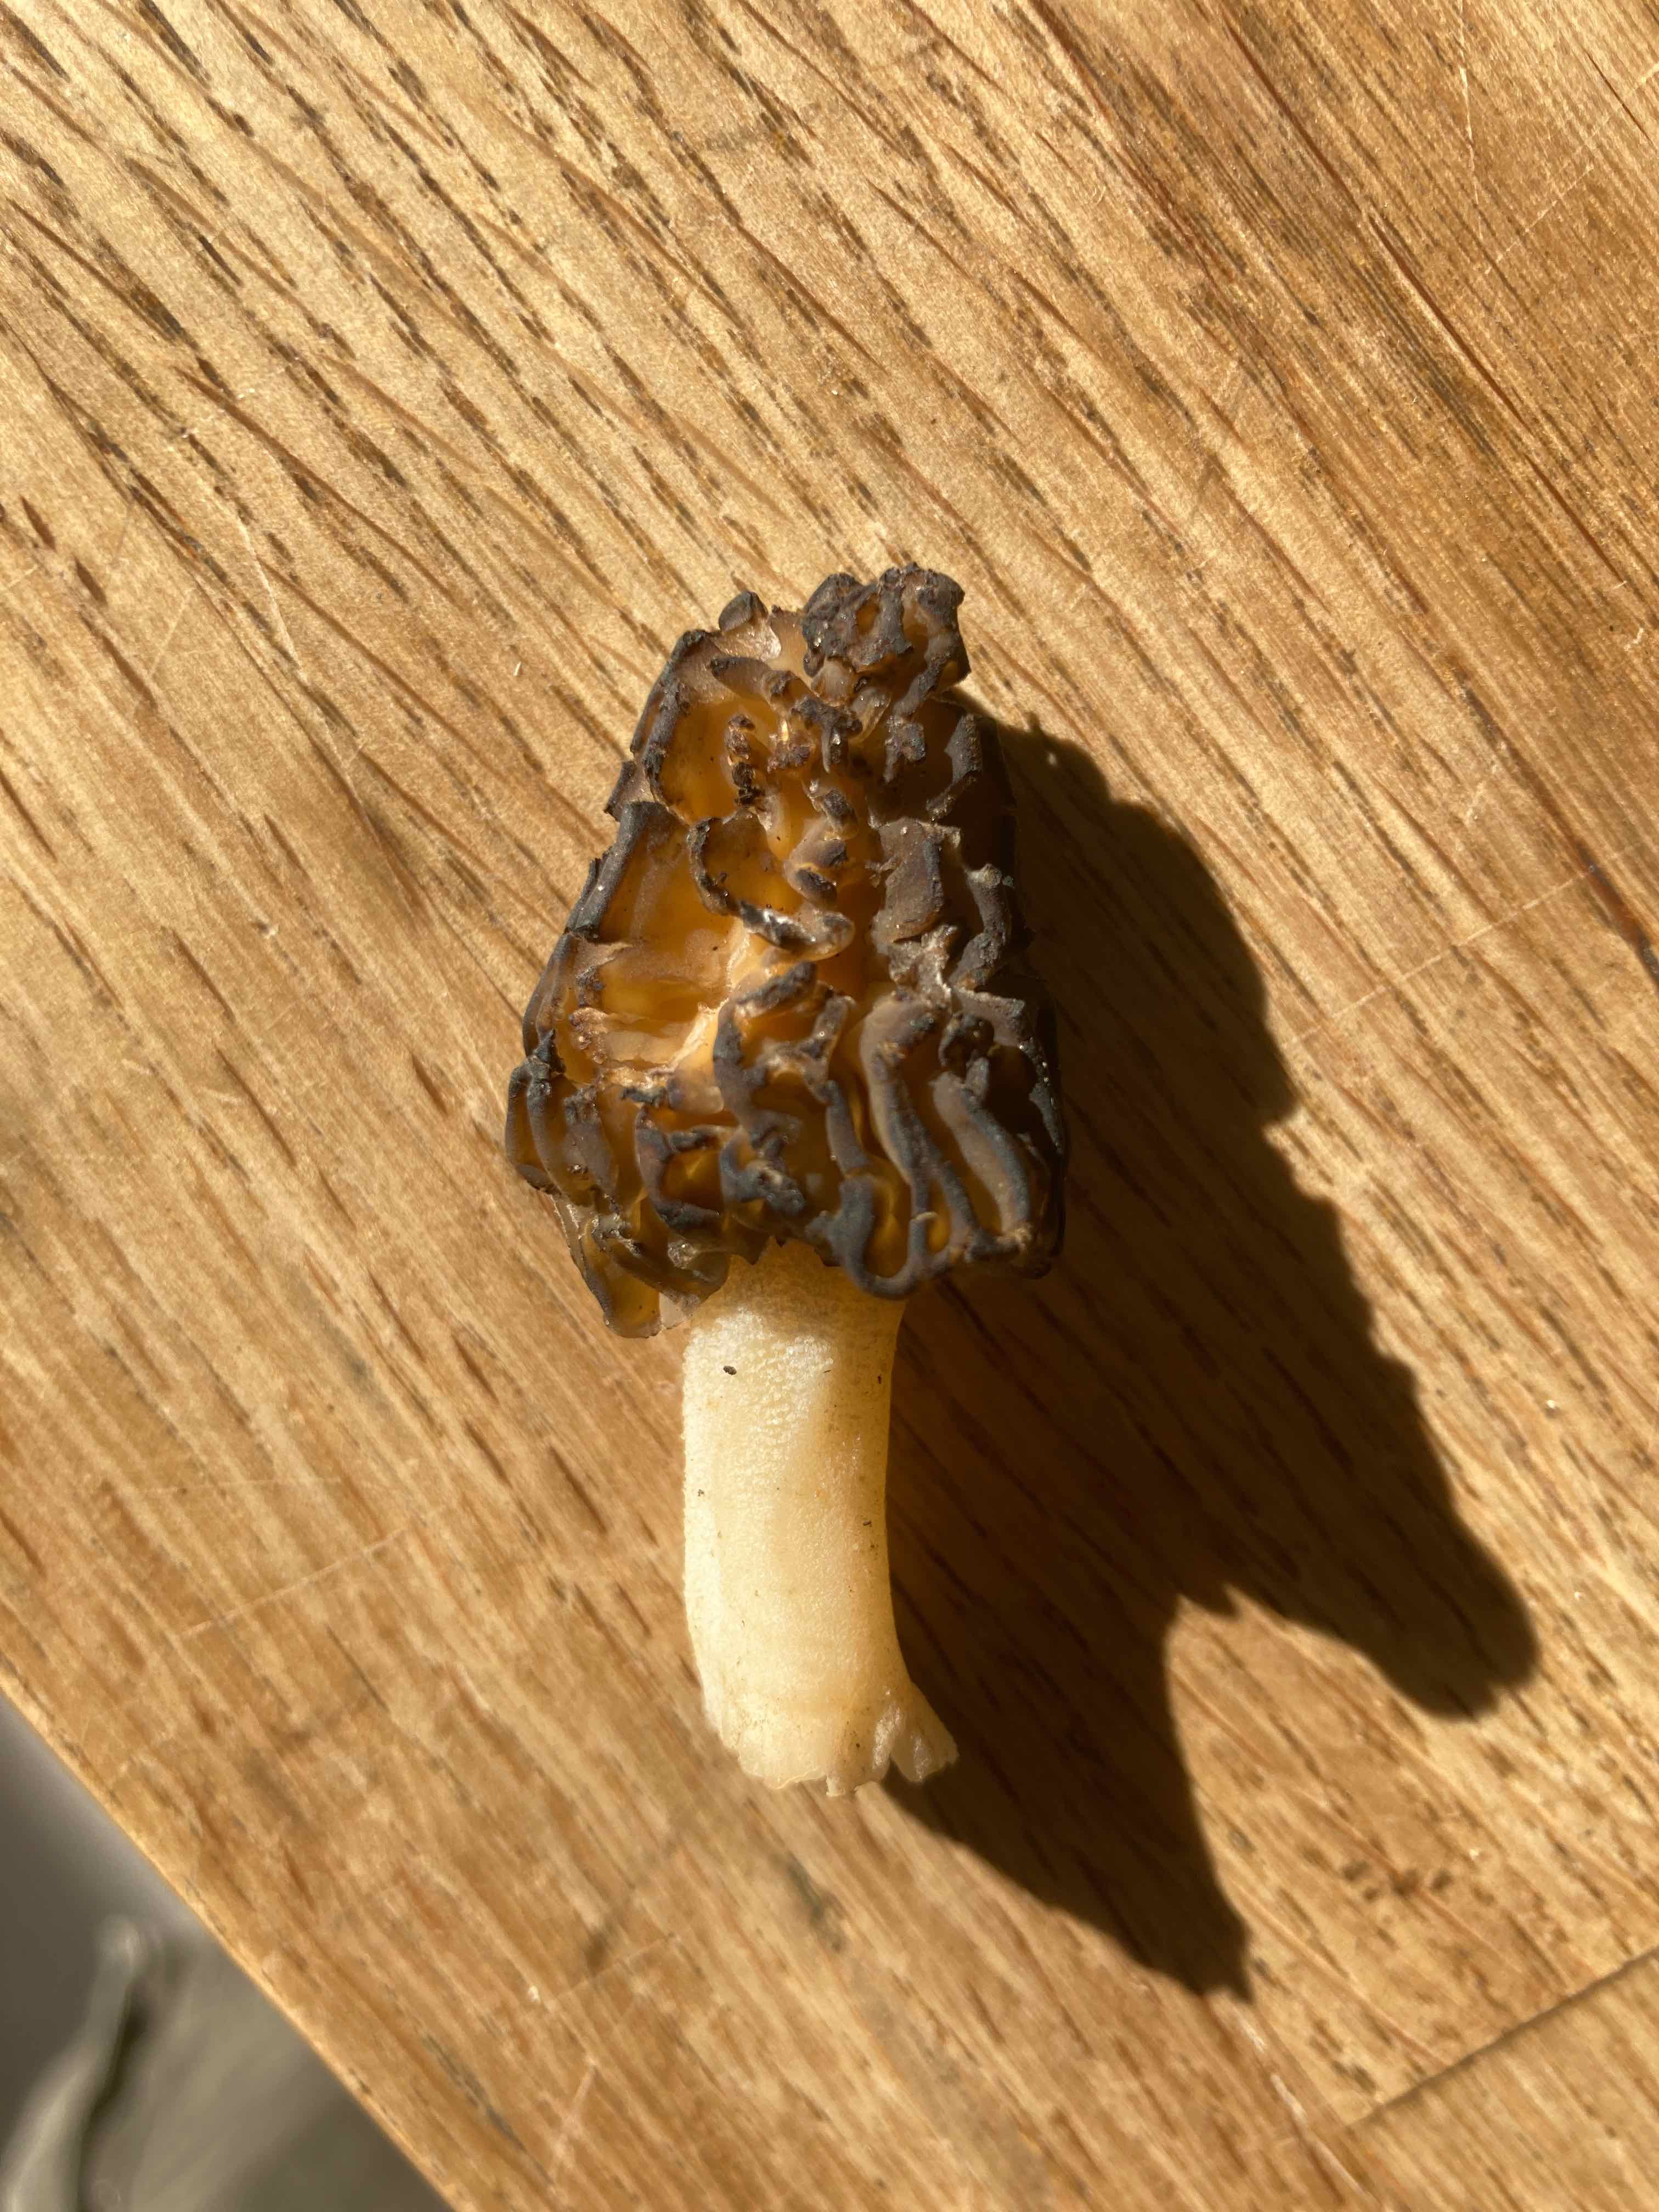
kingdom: Fungi
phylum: Ascomycota
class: Pezizomycetes
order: Pezizales
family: Morchellaceae
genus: Morchella
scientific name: Morchella semilibera
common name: hætte-morkel
